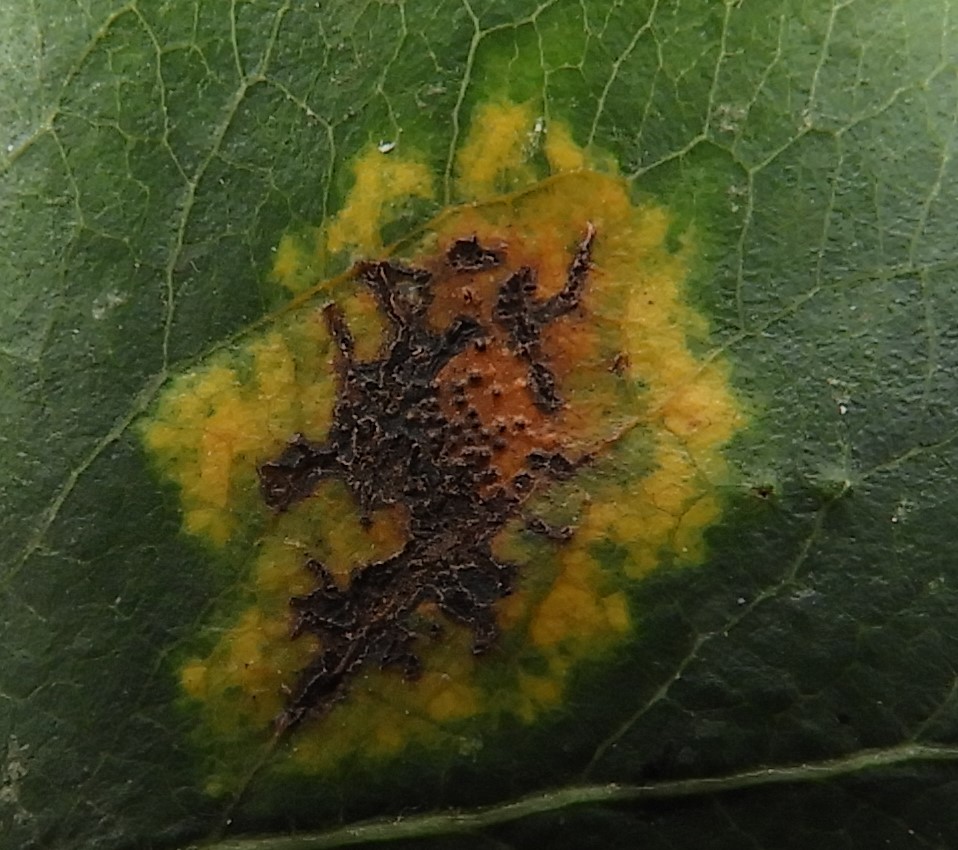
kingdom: Fungi
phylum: Basidiomycota
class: Pucciniomycetes
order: Pucciniales
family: Gymnosporangiaceae
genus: Gymnosporangium
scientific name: Gymnosporangium sabinae
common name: pæregitter-bævrerust
